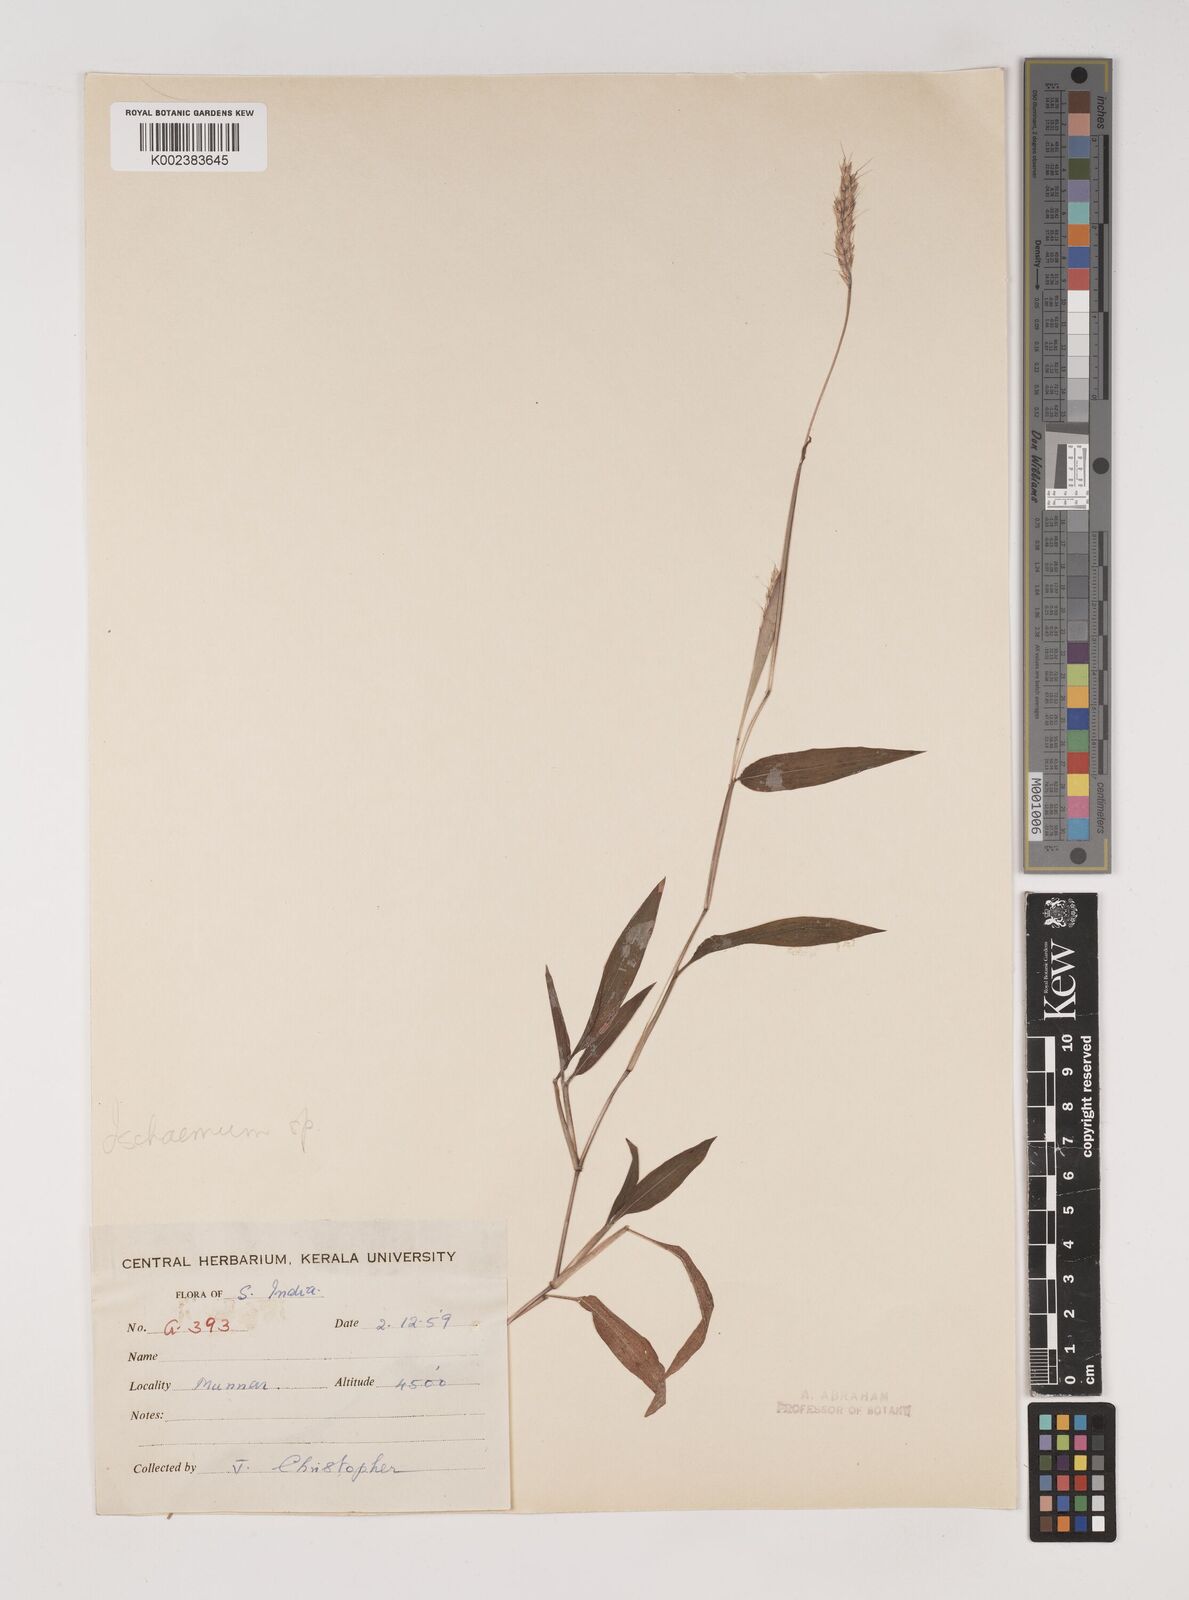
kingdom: Plantae
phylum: Tracheophyta
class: Liliopsida
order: Poales
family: Poaceae
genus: Ischaemum
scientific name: Ischaemum
